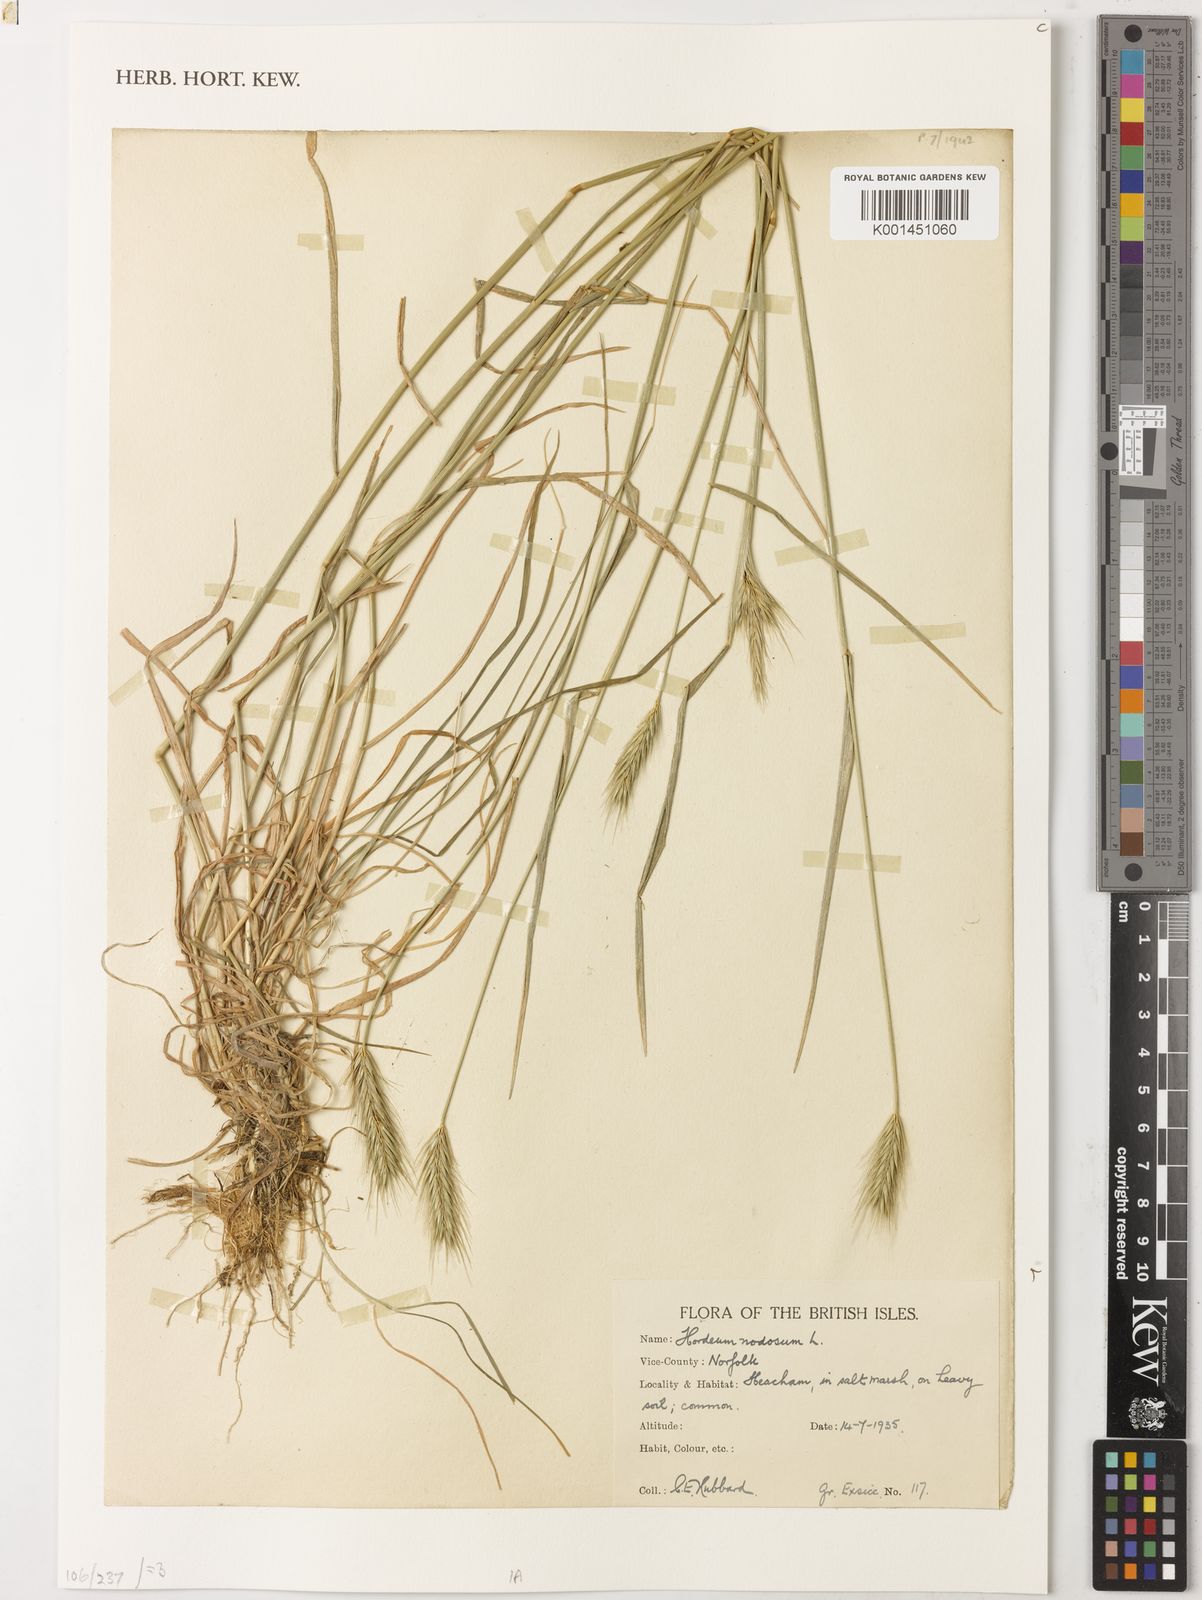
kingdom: Plantae
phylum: Tracheophyta
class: Liliopsida
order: Poales
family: Poaceae
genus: Hordeum
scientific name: Hordeum bulbosum
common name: Bulbous barley
